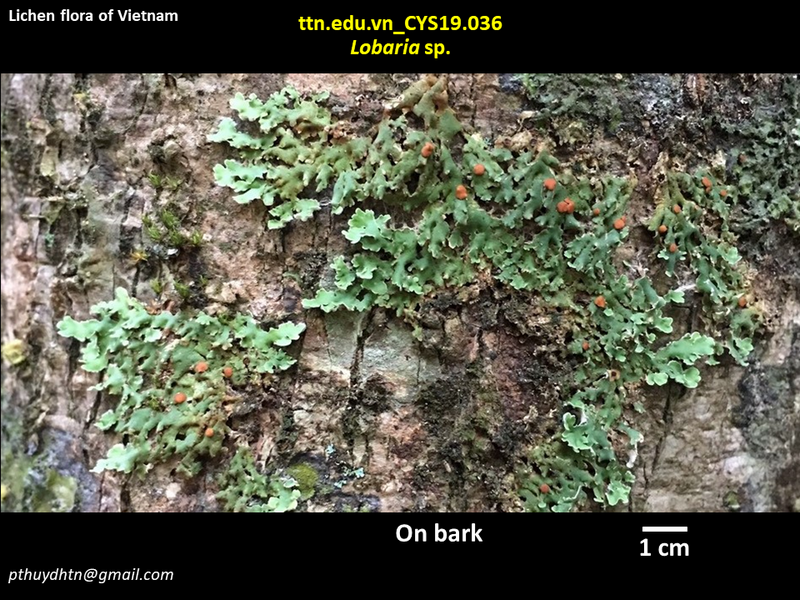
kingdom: Fungi
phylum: Ascomycota
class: Lecanoromycetes
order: Peltigerales
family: Lobariaceae
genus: Lobaria
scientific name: Lobaria
